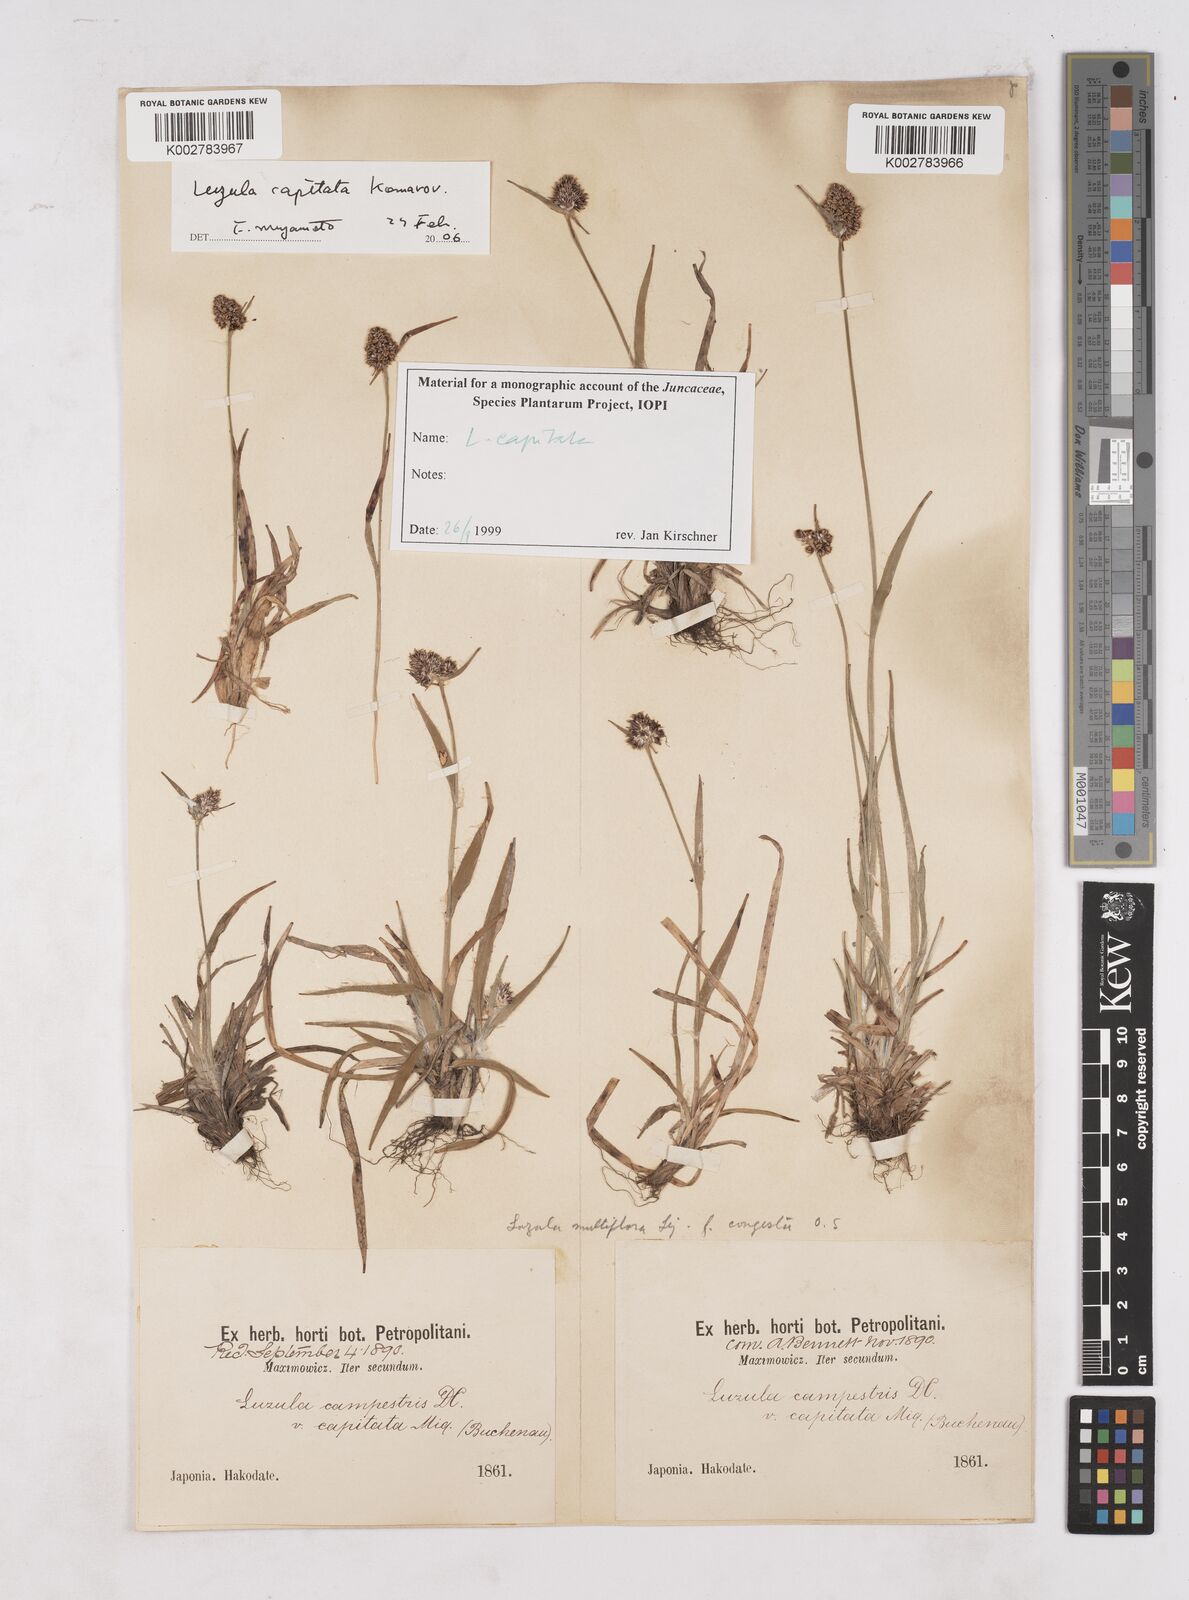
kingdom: Plantae
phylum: Tracheophyta
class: Liliopsida
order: Poales
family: Juncaceae
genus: Luzula
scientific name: Luzula capitata
